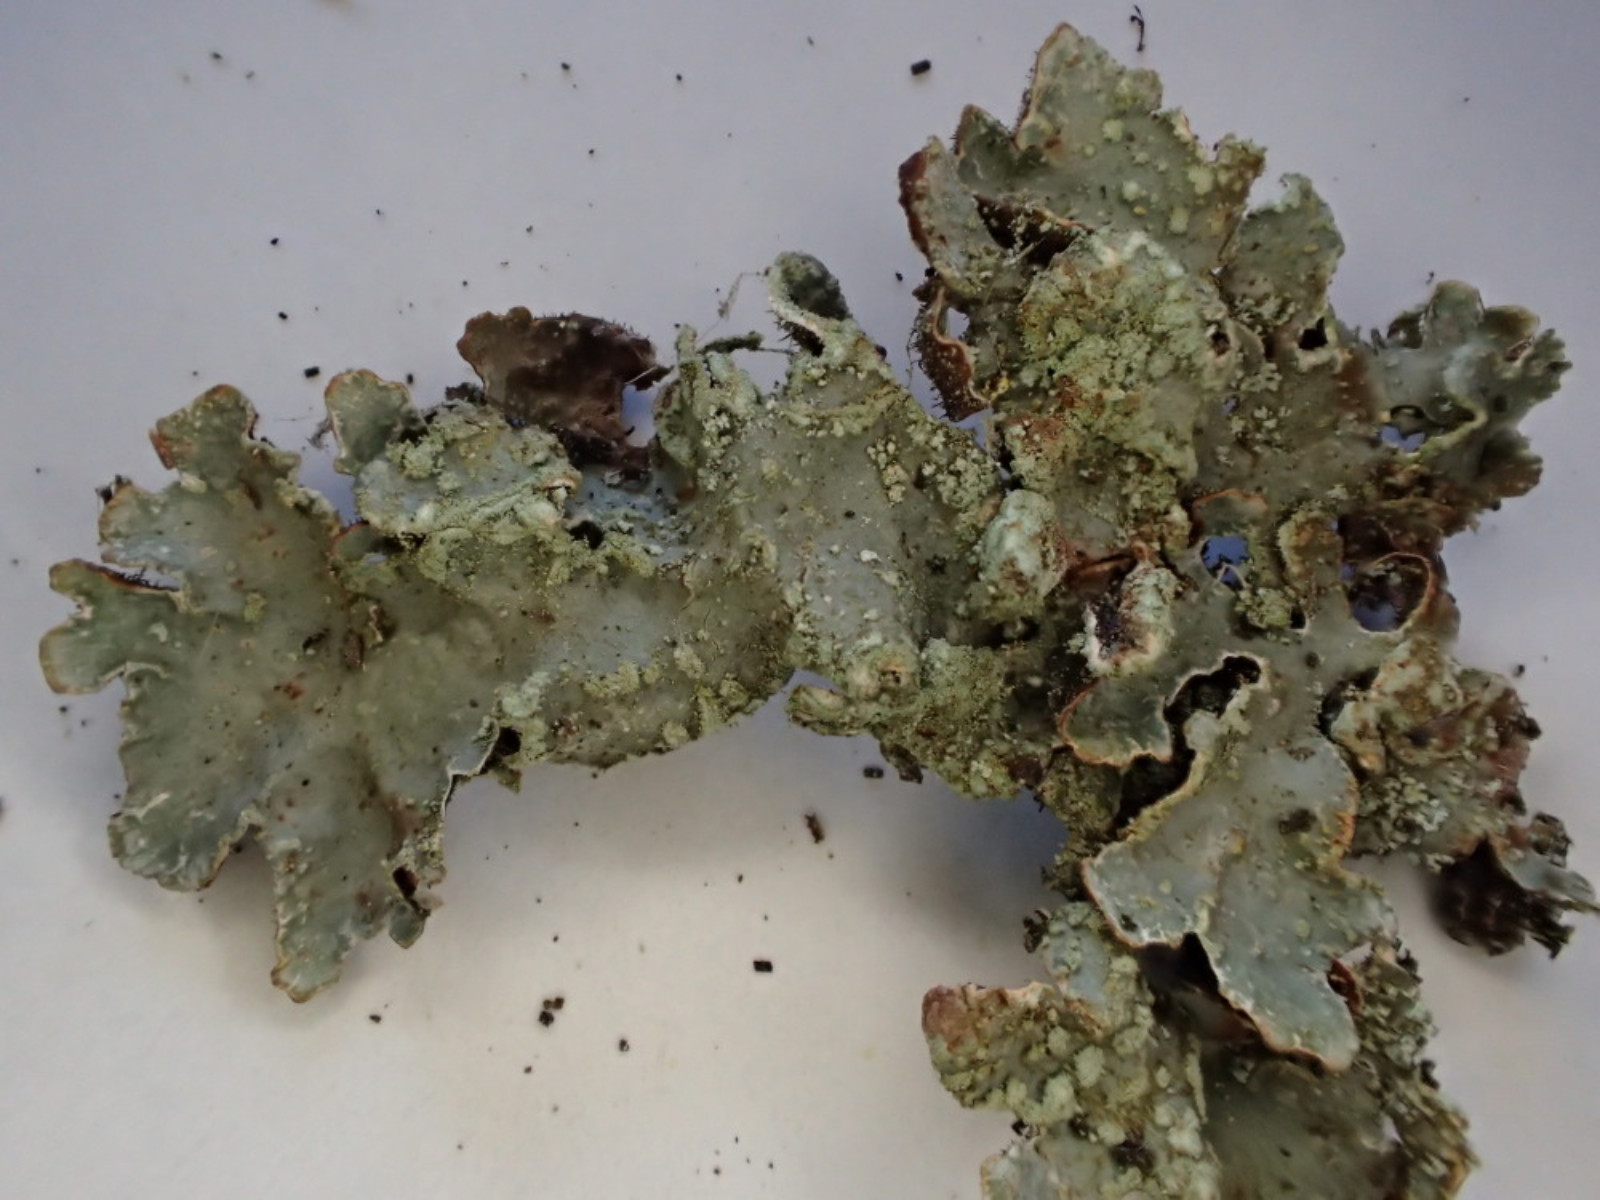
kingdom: Fungi
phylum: Ascomycota
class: Lecanoromycetes
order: Lecanorales
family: Parmeliaceae
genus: Parmelia
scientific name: Parmelia sulcata
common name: rynket skållav
